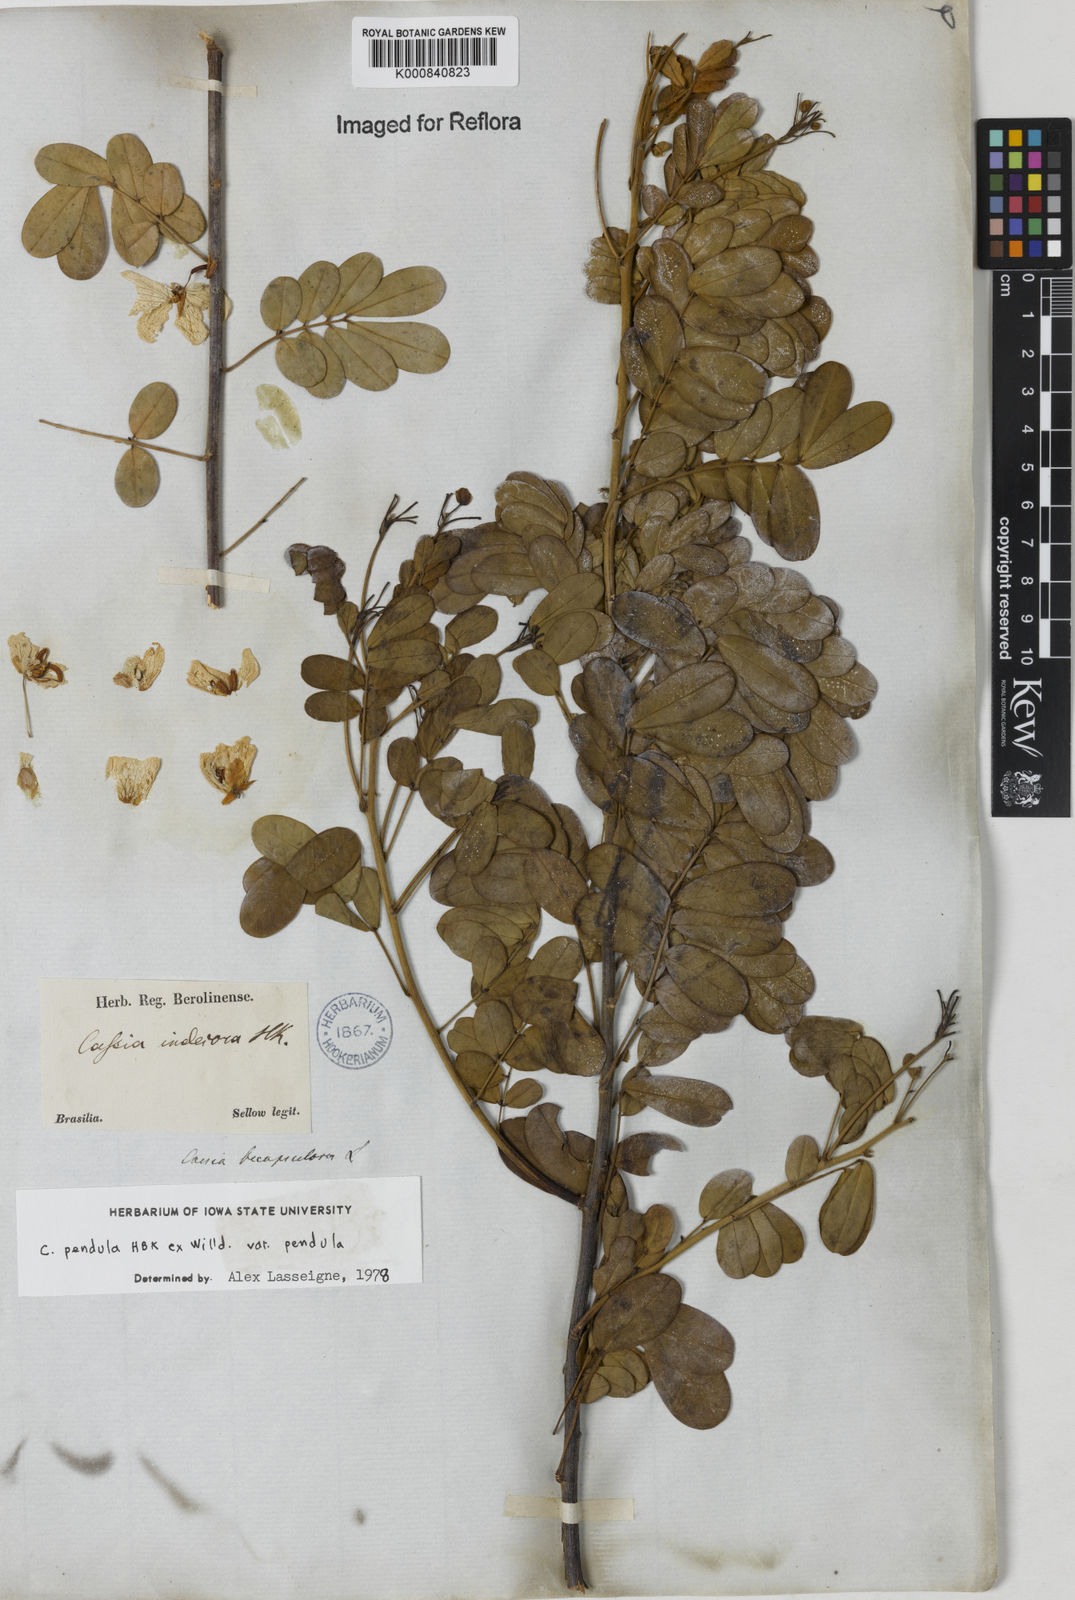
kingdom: Plantae
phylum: Tracheophyta
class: Magnoliopsida
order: Fabales
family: Fabaceae
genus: Senna
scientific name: Senna pendula
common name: Easter cassia
